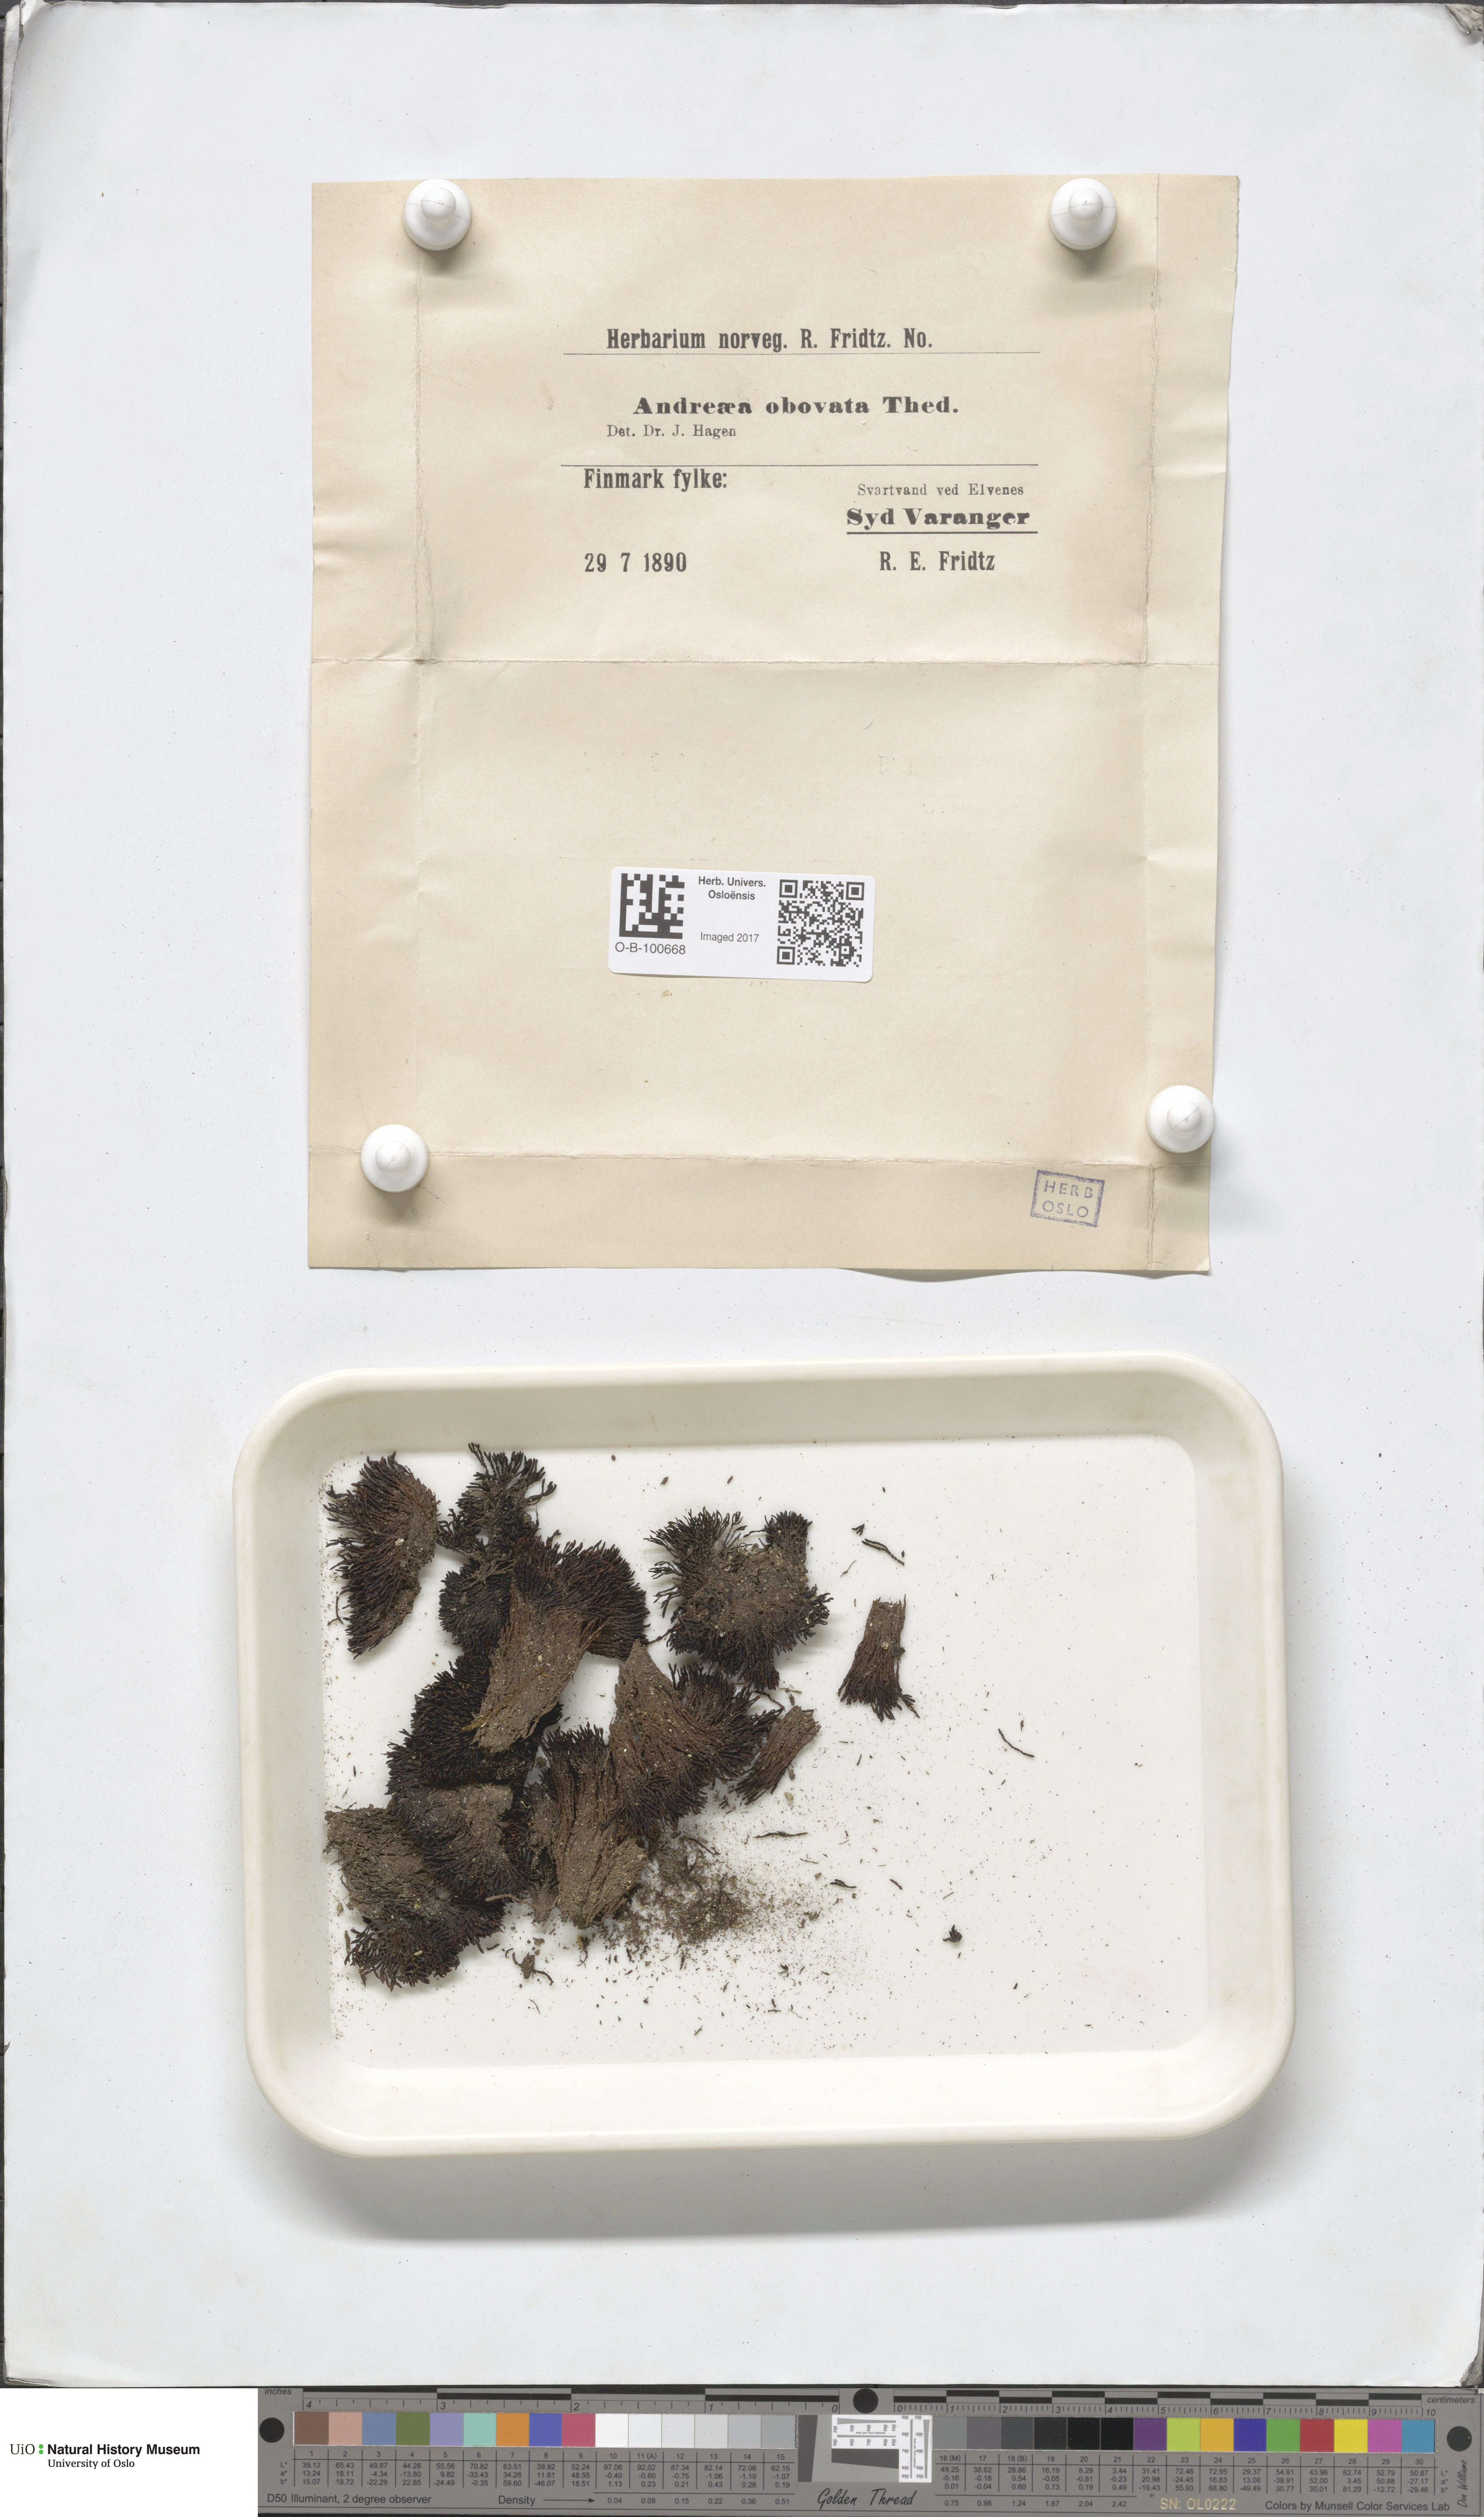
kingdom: Plantae
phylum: Bryophyta
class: Andreaeopsida
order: Andreaeales
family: Andreaeaceae
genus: Andreaea
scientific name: Andreaea alpina
